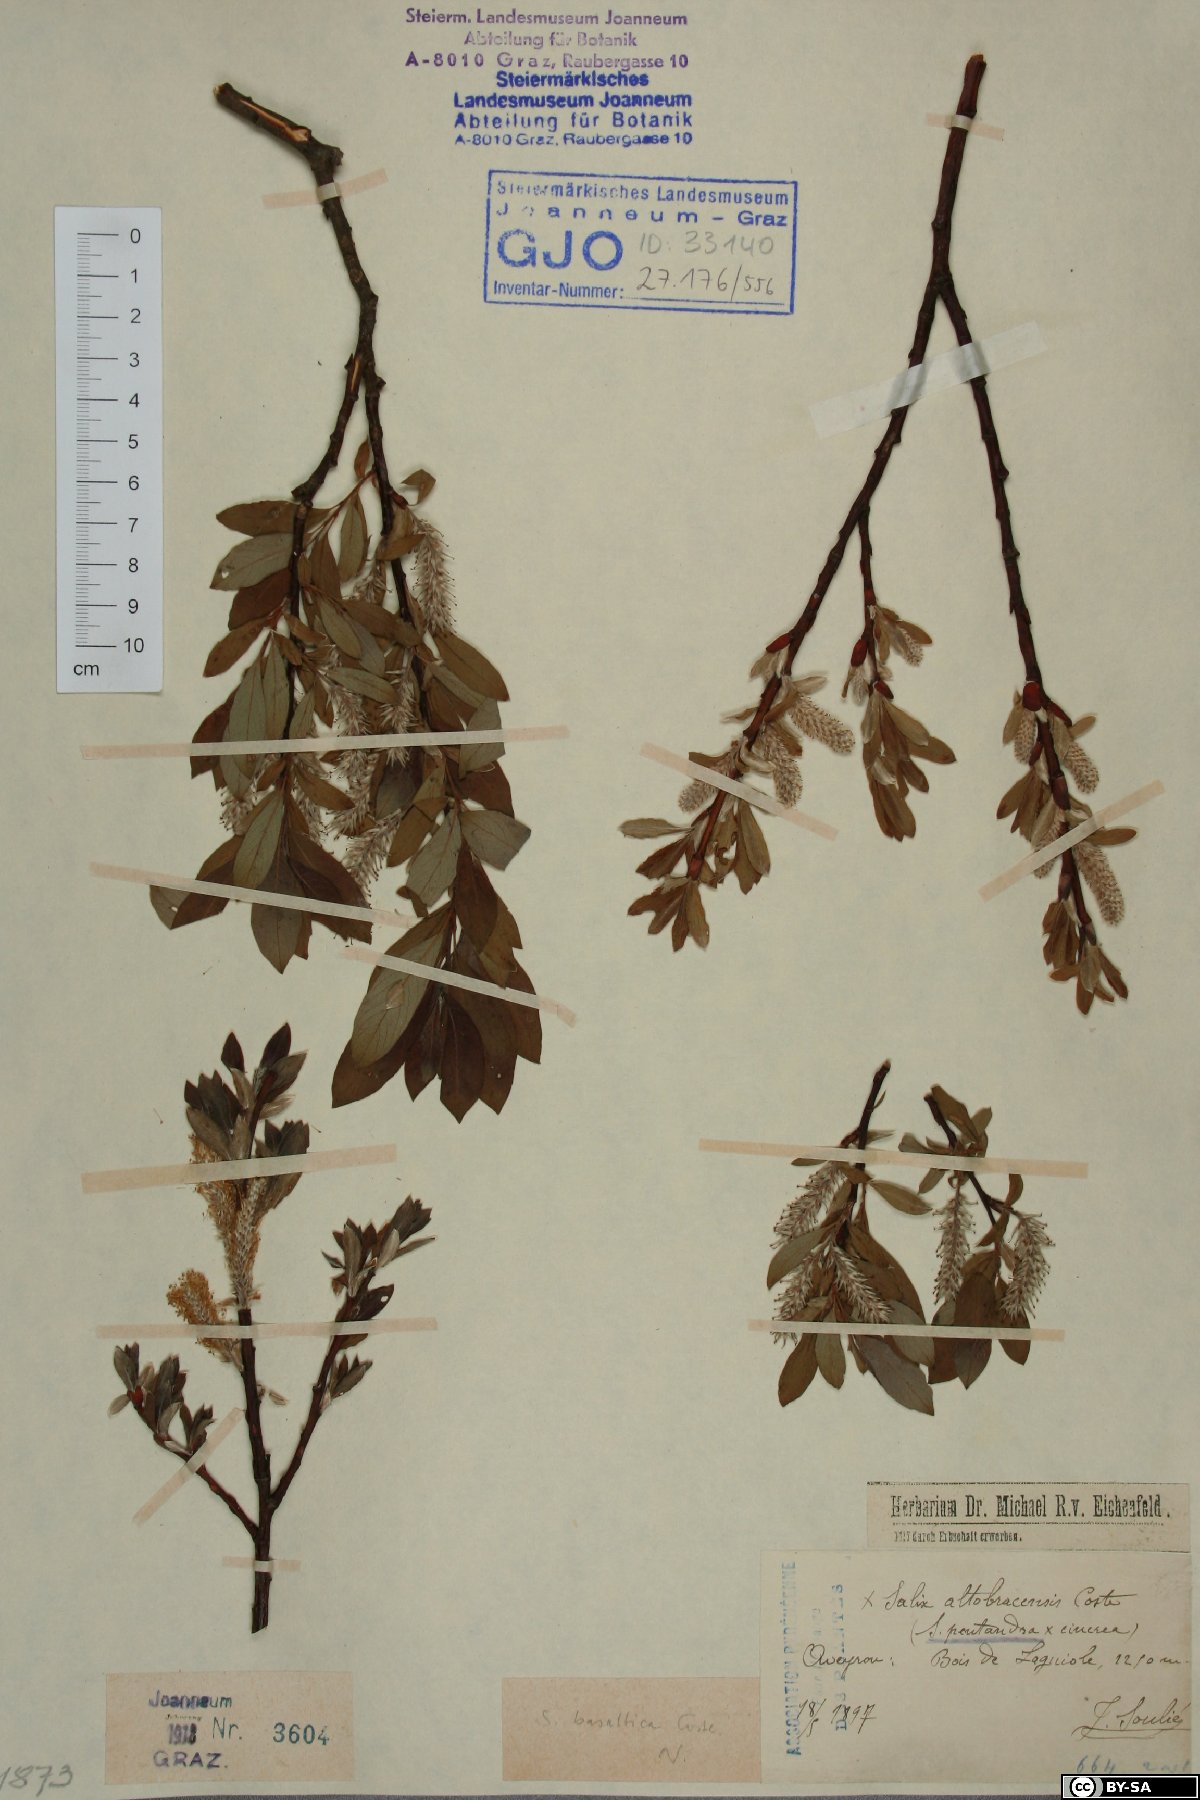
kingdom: Plantae
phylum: Tracheophyta
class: Magnoliopsida
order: Malpighiales
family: Salicaceae
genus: Salix
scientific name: Salix basaltica
